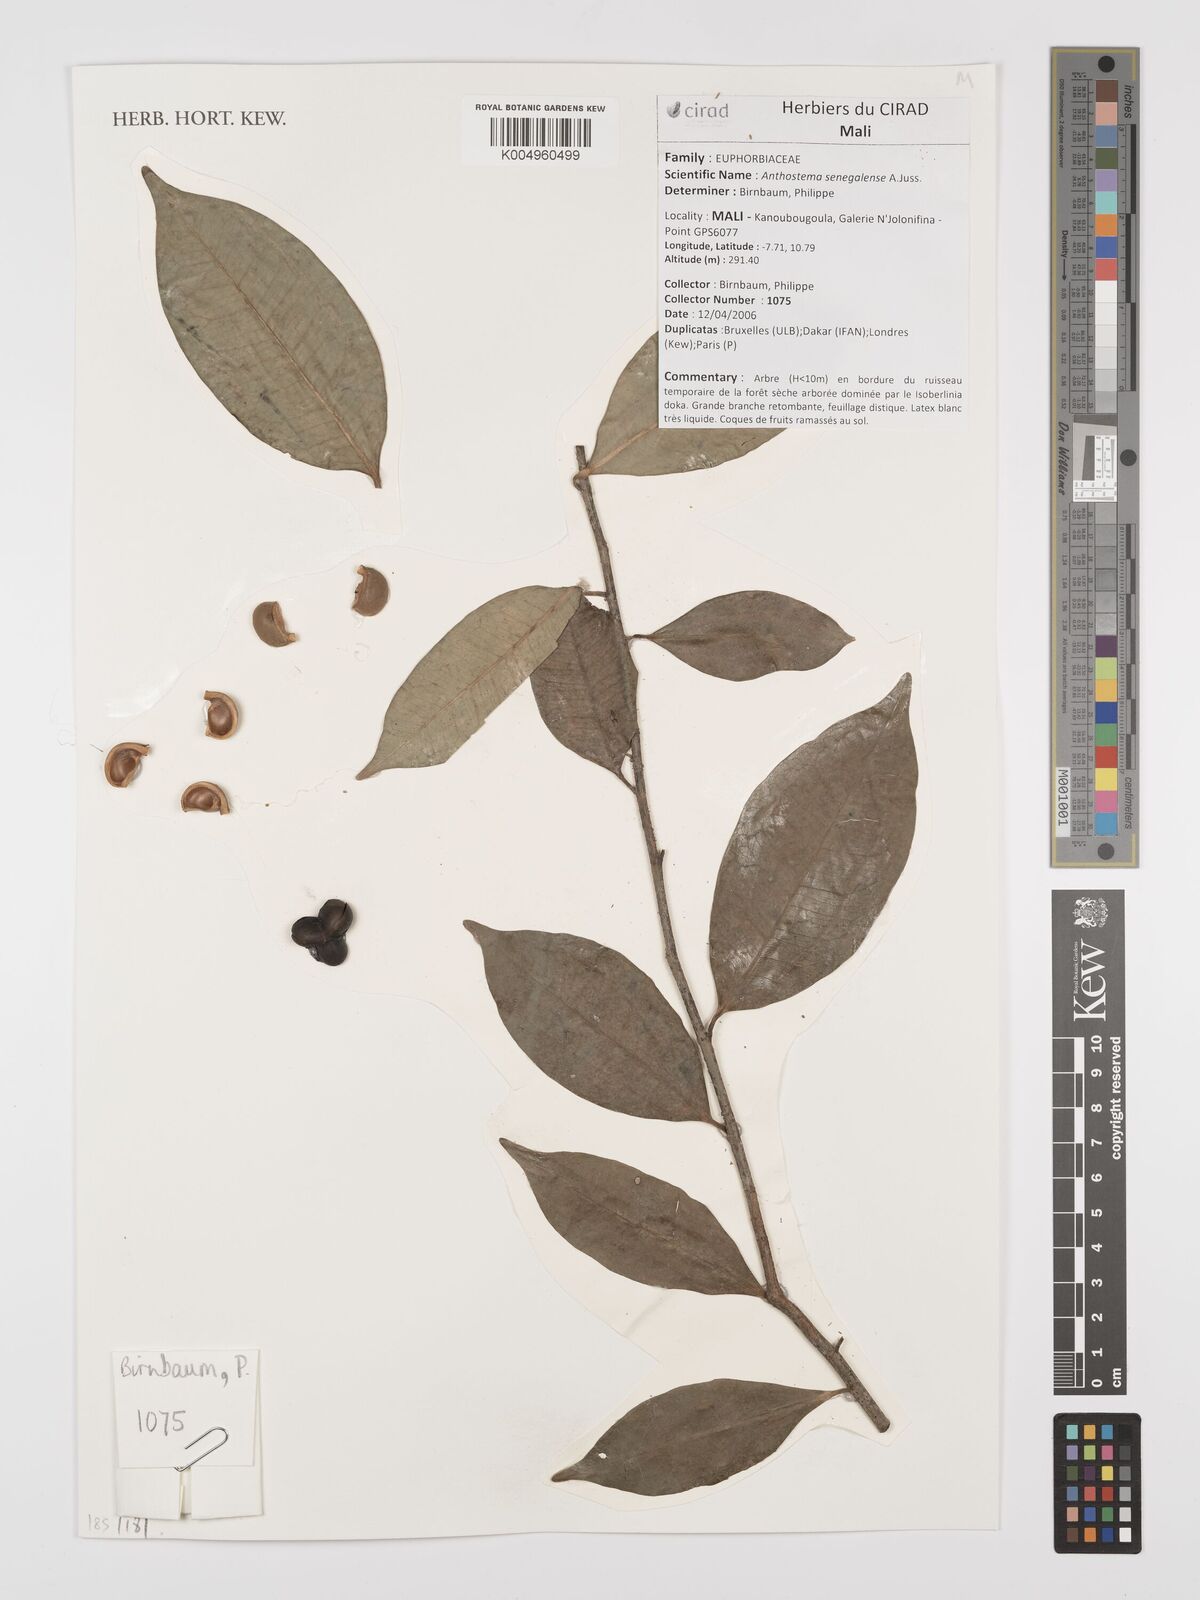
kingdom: Plantae
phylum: Tracheophyta
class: Magnoliopsida
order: Malpighiales
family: Euphorbiaceae
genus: Anthostema
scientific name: Anthostema senegalense
